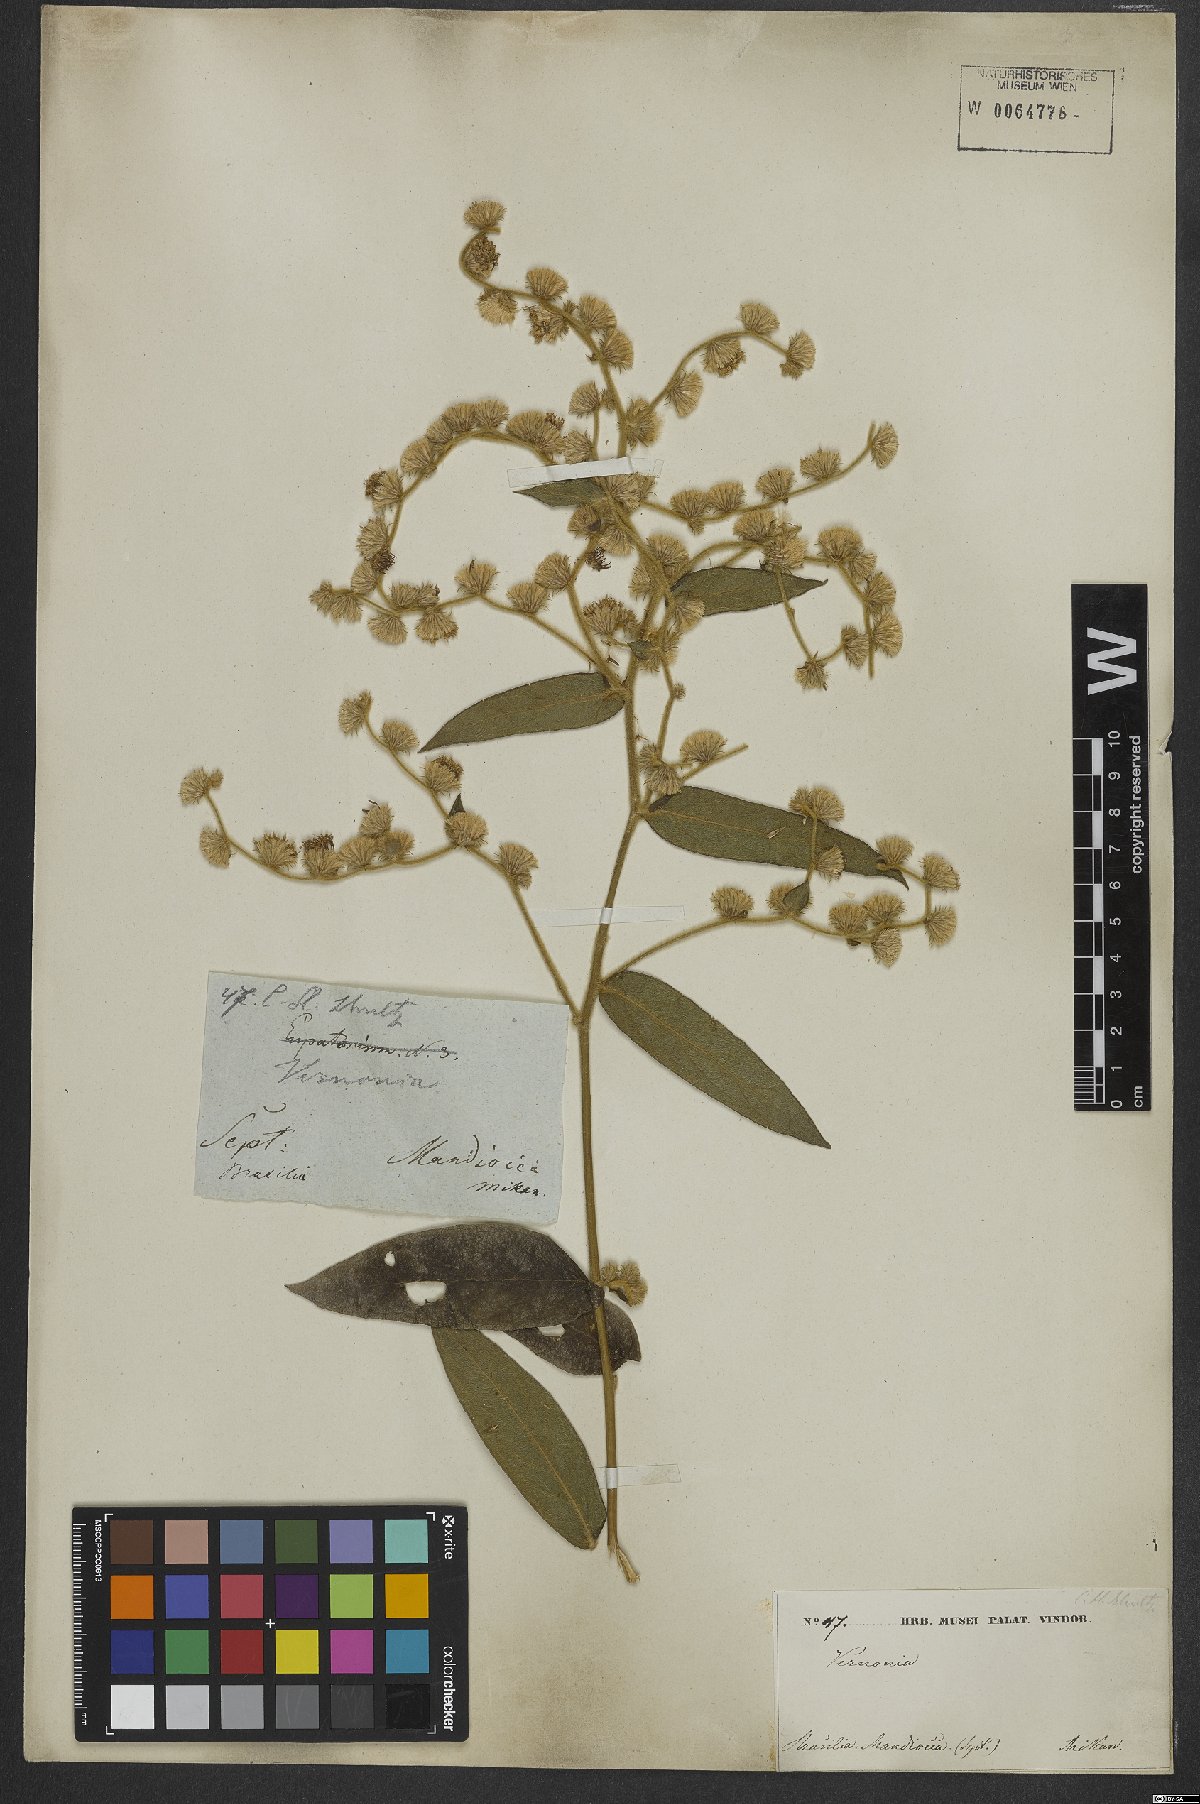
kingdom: Plantae
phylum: Tracheophyta
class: Magnoliopsida
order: Asterales
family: Asteraceae
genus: Lepidaploa
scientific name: Lepidaploa subsquarrosa
